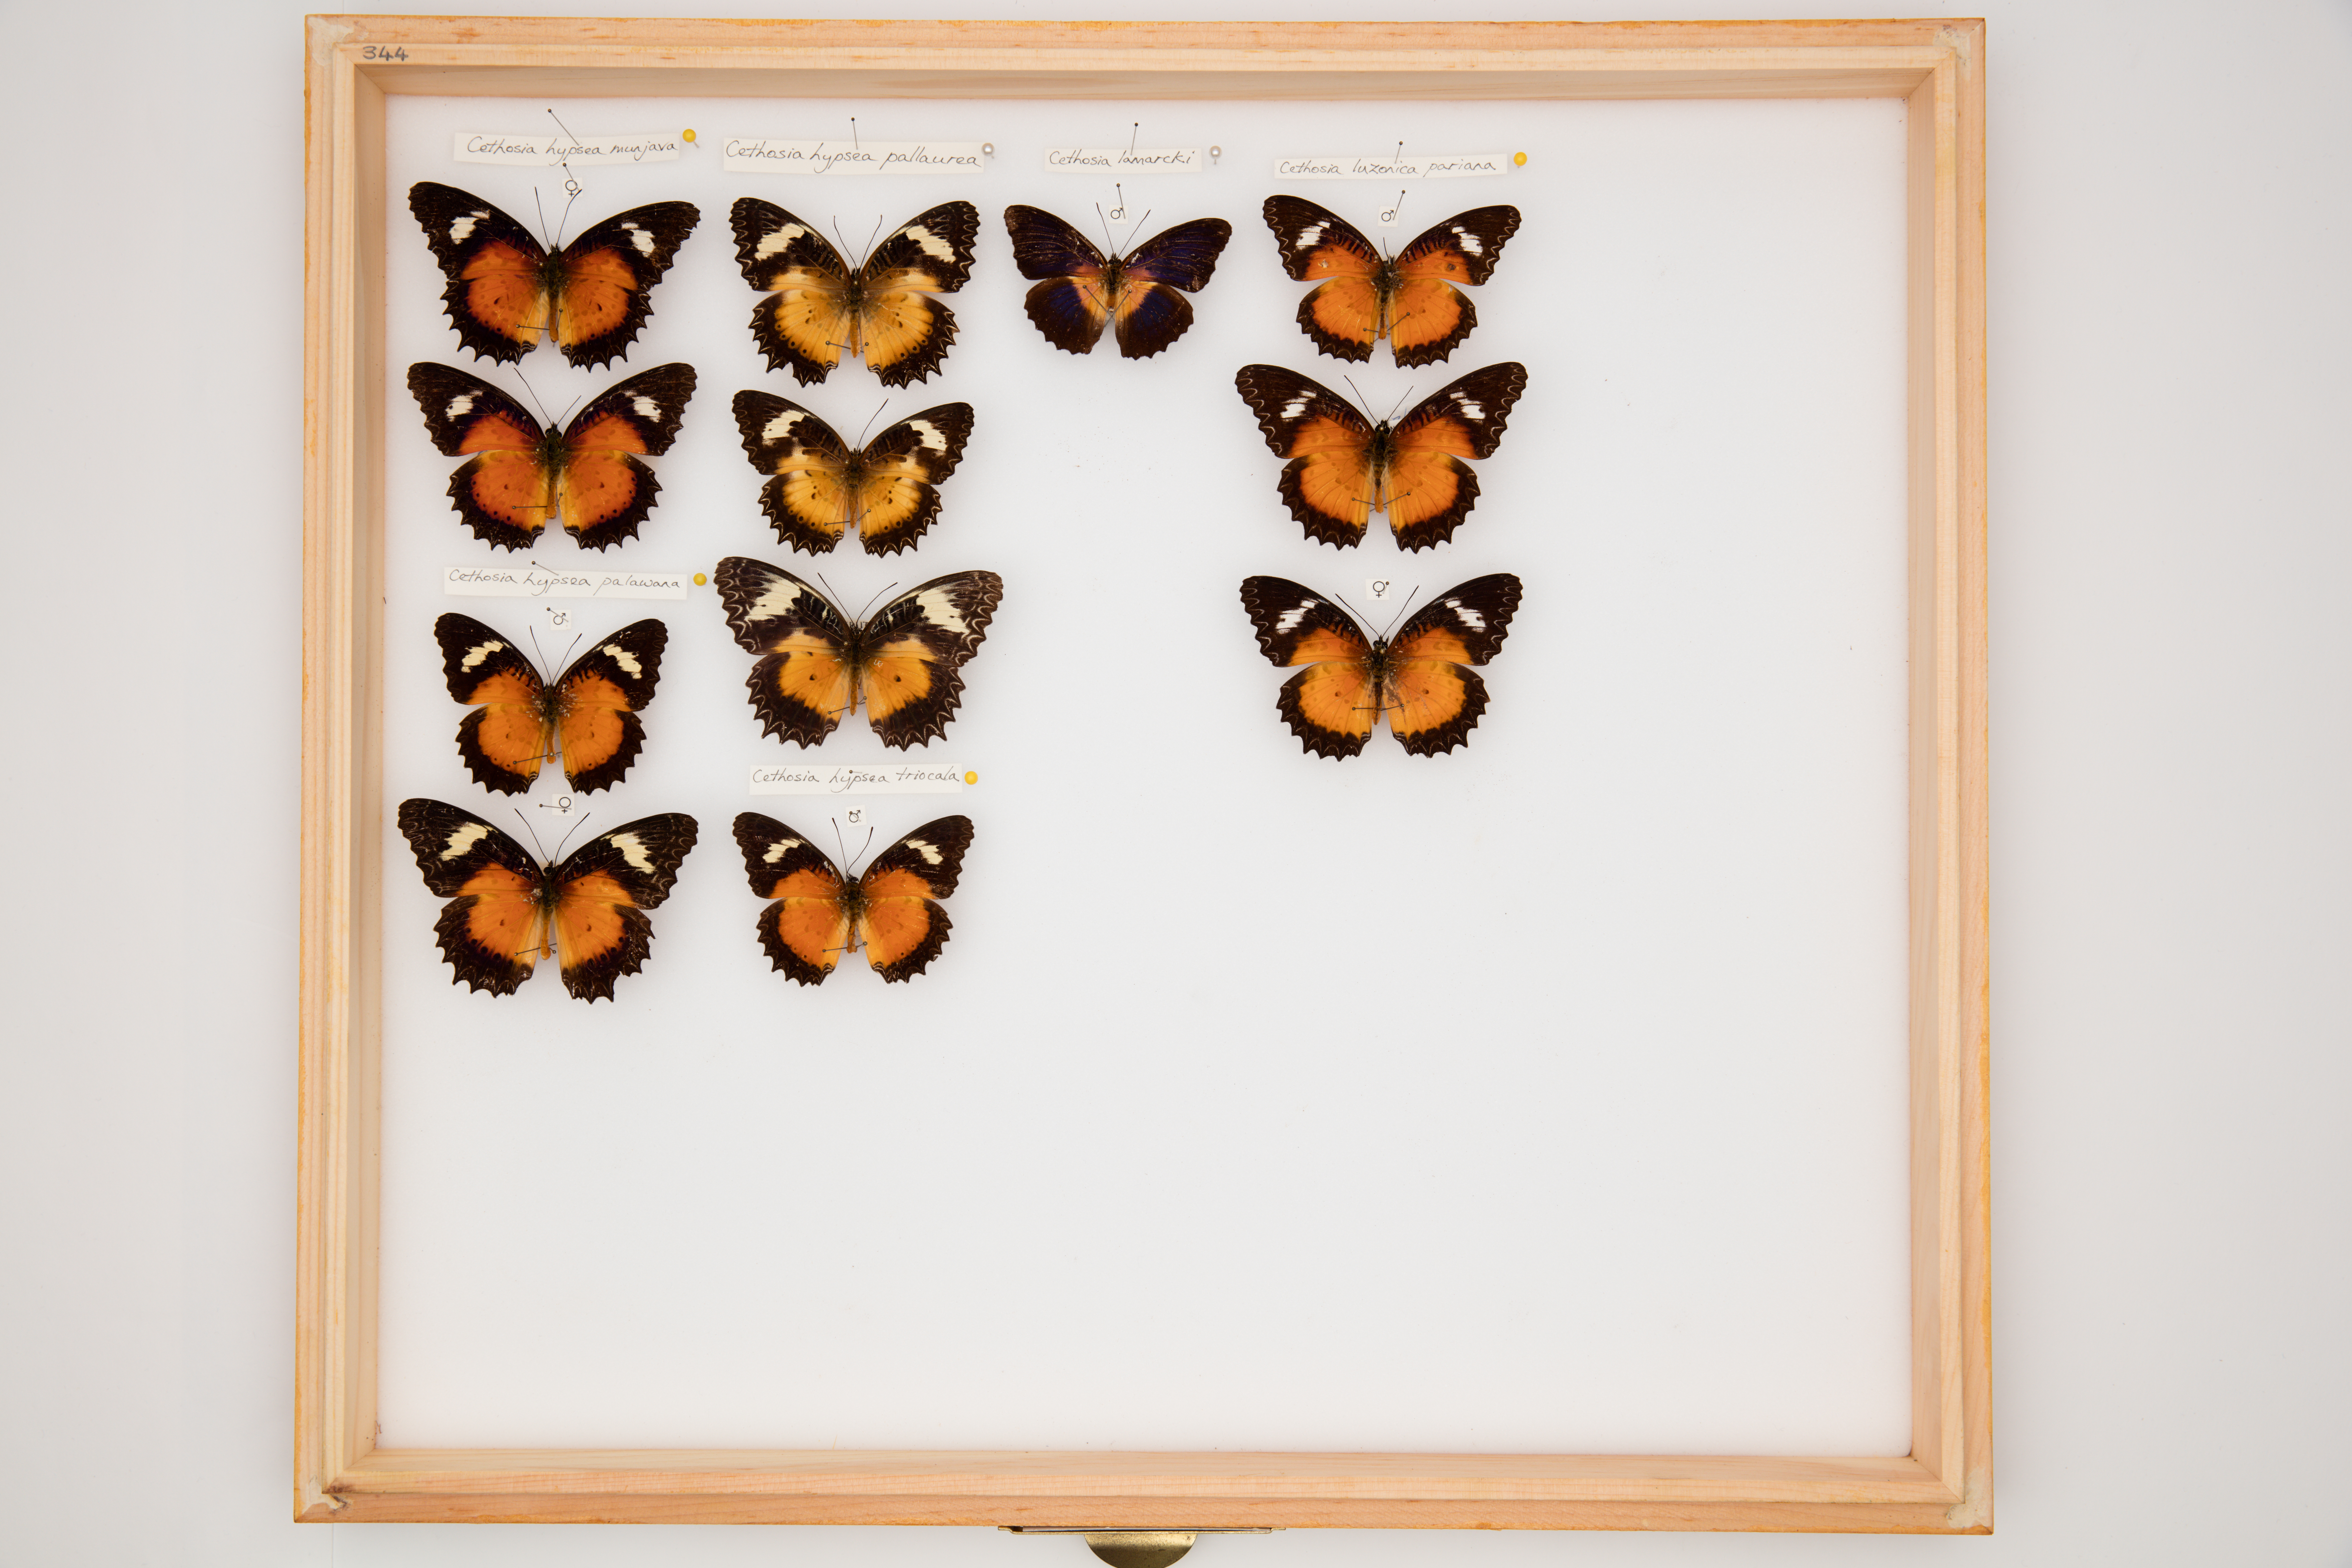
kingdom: Animalia
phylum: Arthropoda
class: Insecta
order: Lepidoptera
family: Nymphalidae
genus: Cethosia
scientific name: Cethosia hypsea
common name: Malayan lacewing butterfly
